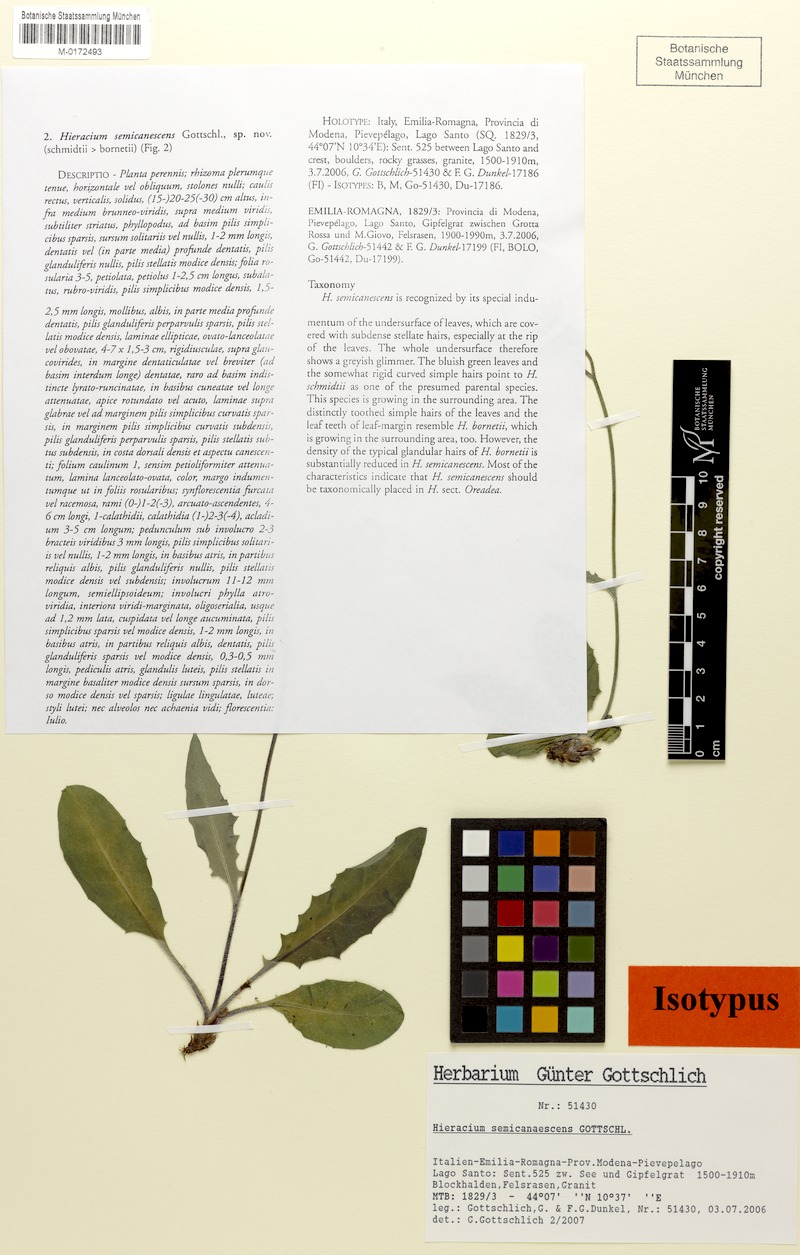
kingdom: Plantae
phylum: Tracheophyta
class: Magnoliopsida
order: Asterales
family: Asteraceae
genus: Hieracium
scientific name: Hieracium semicanescens
